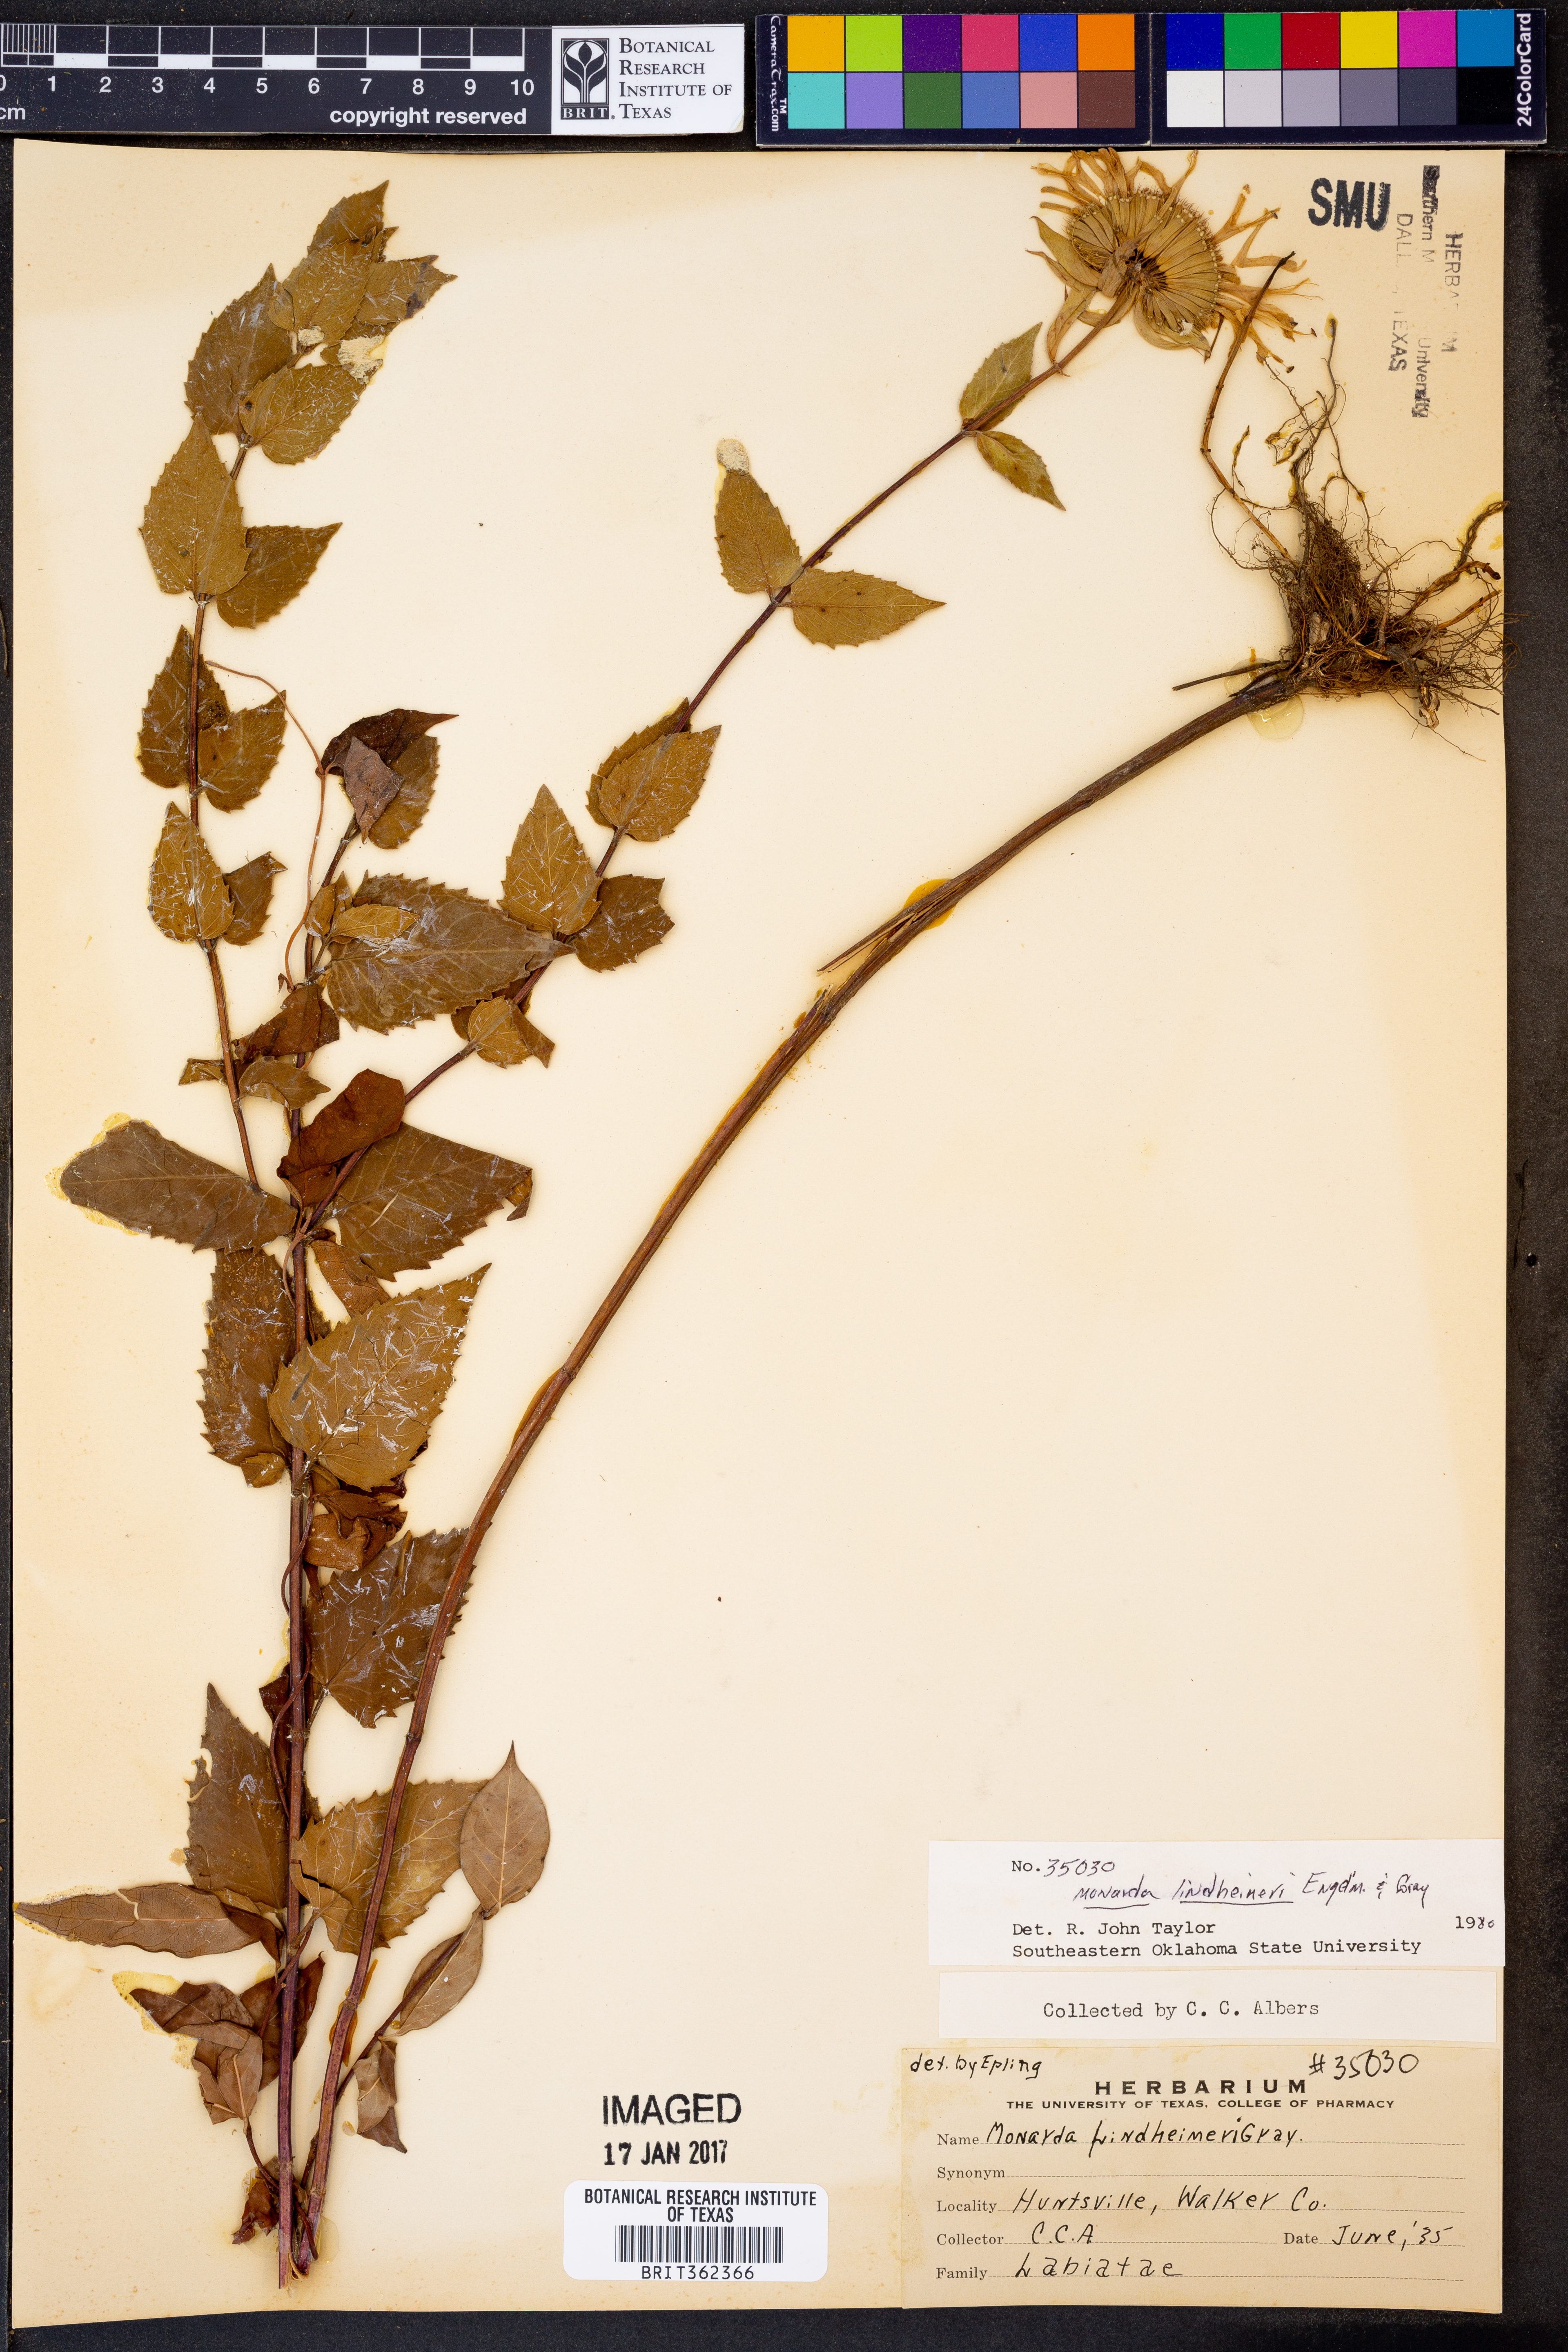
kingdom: Plantae
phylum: Tracheophyta
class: Magnoliopsida
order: Lamiales
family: Lamiaceae
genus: Monarda
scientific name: Monarda lindheimeri
